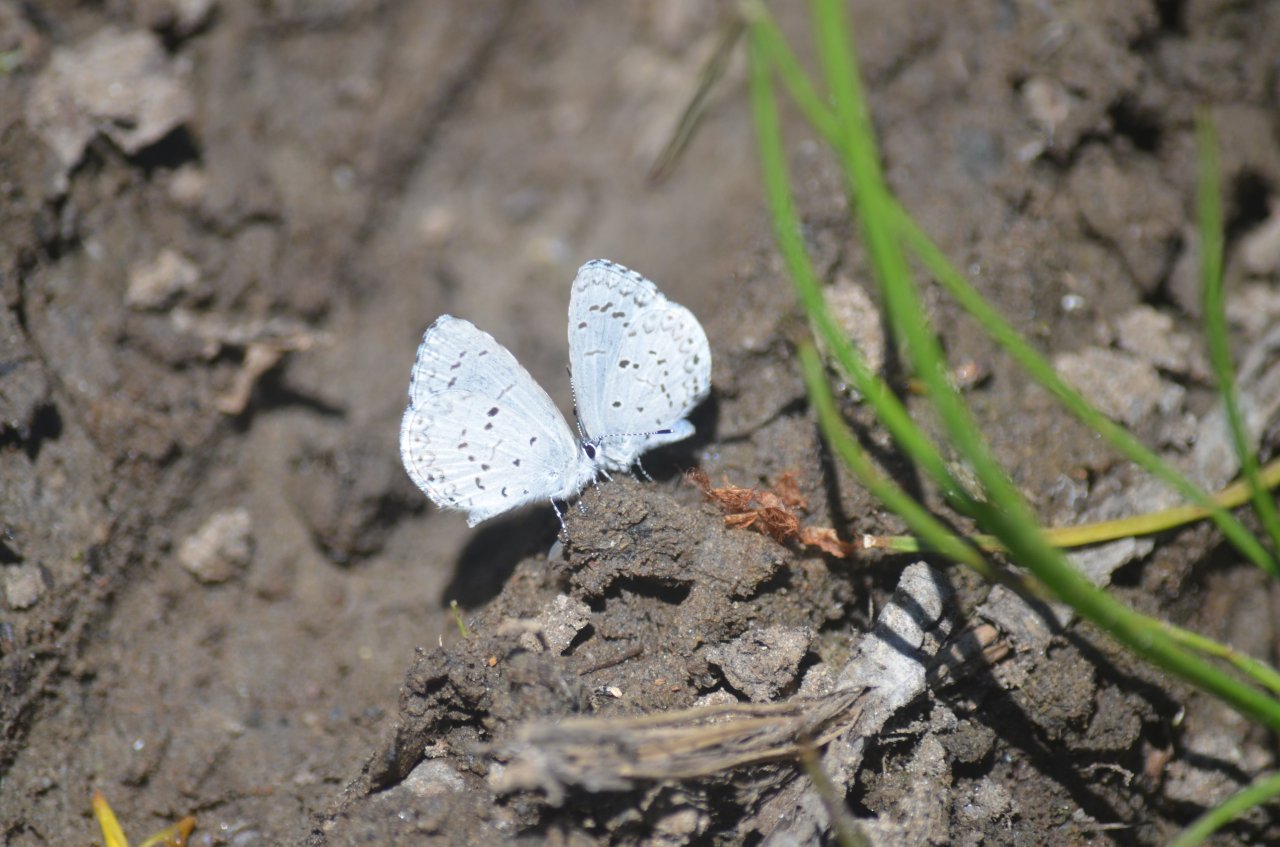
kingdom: Animalia
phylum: Arthropoda
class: Insecta
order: Lepidoptera
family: Lycaenidae
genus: Celastrina
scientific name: Celastrina lucia
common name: Northern Spring Azure
